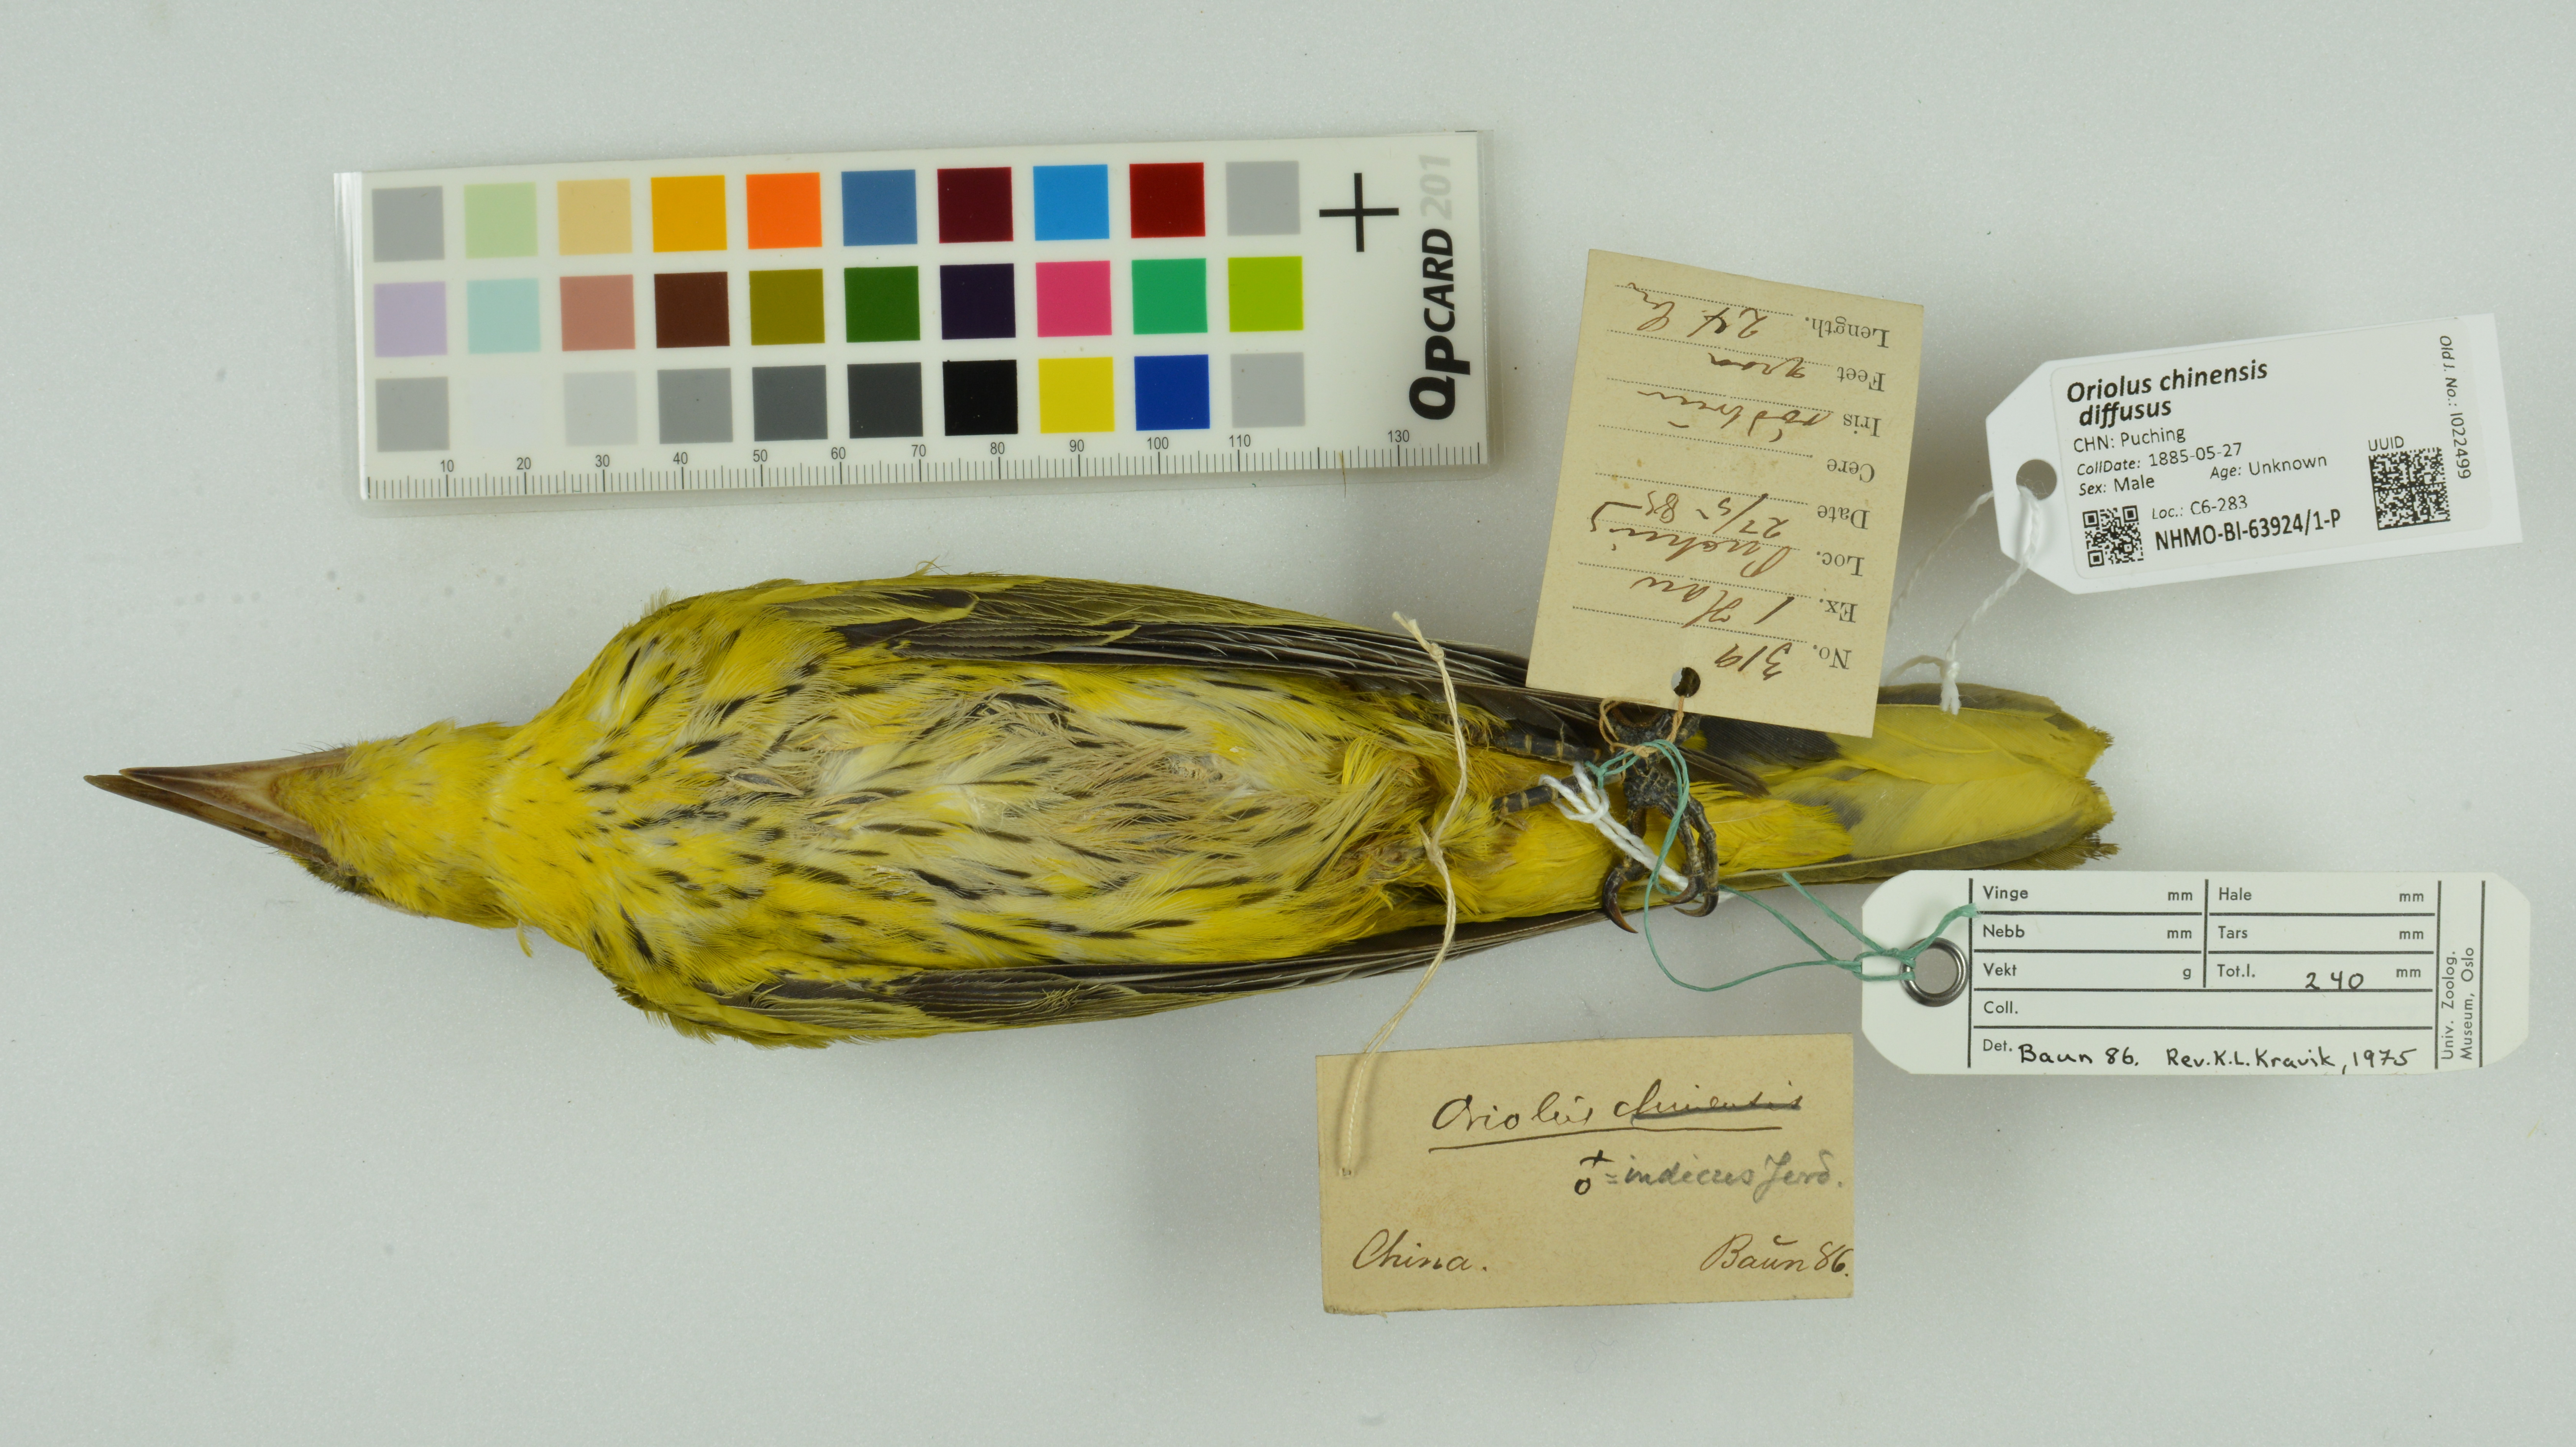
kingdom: Animalia
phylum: Chordata
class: Aves
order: Passeriformes
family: Oriolidae
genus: Oriolus
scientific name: Oriolus chinensis
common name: Black-naped oriole
